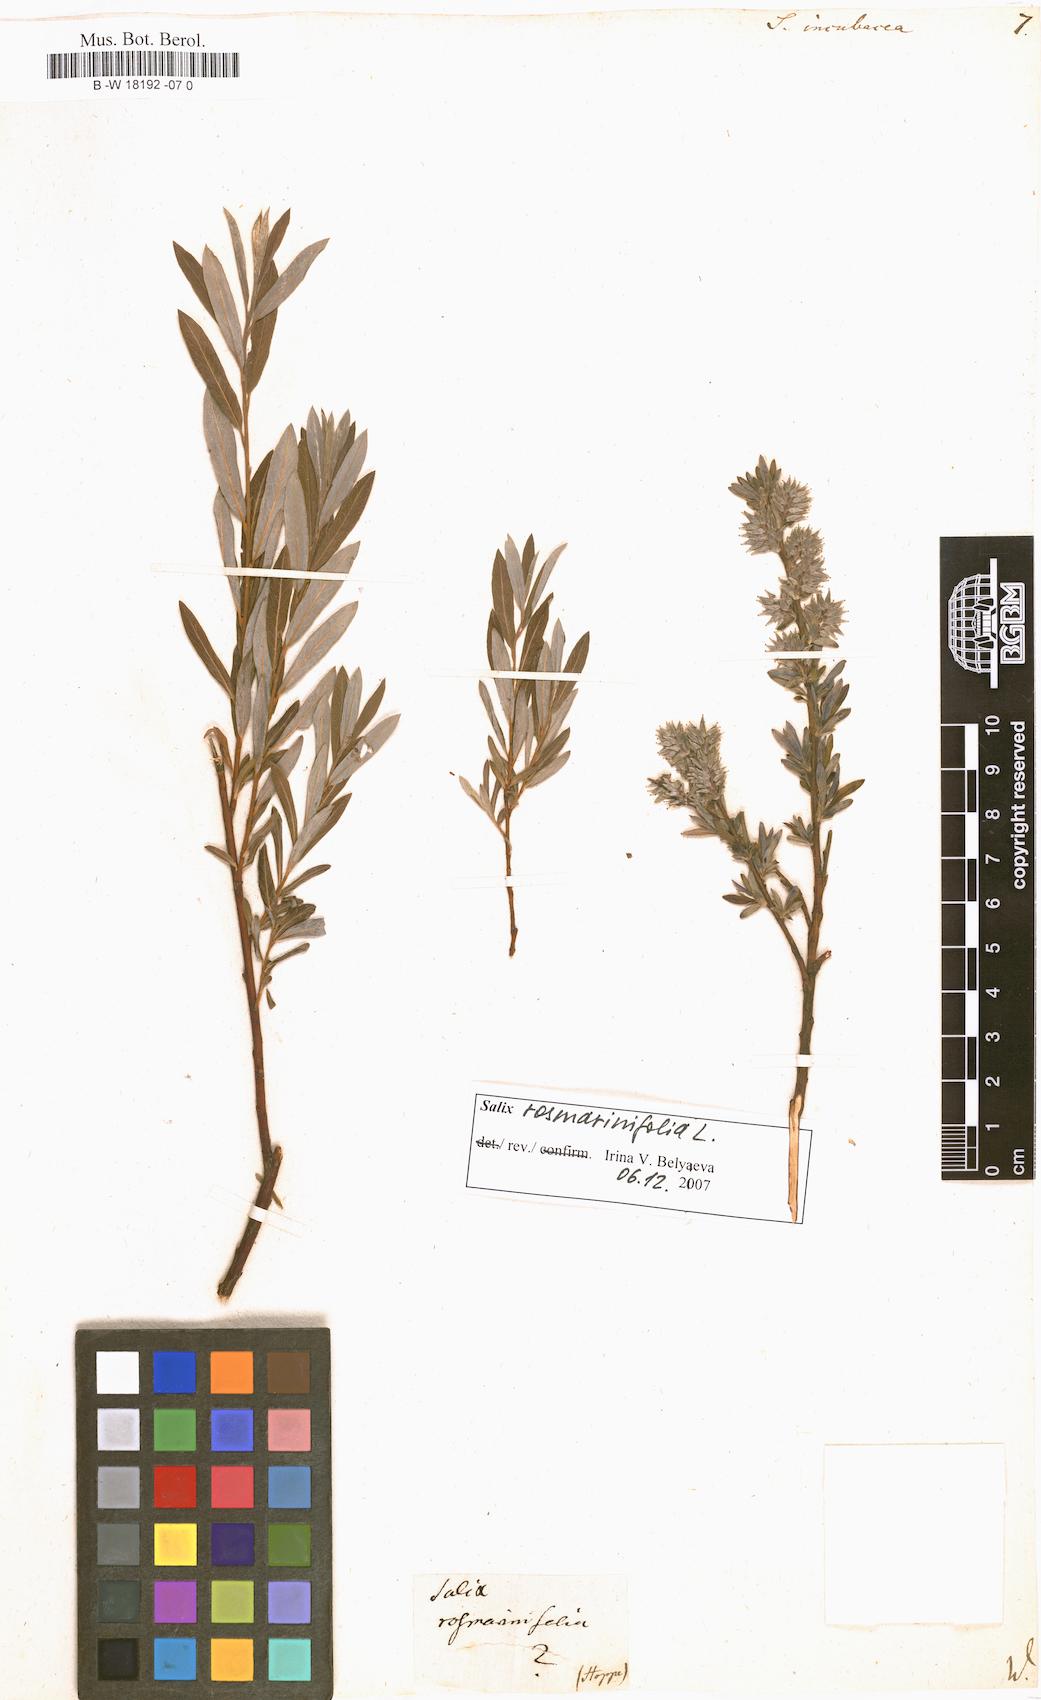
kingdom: Plantae
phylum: Tracheophyta
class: Magnoliopsida
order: Malpighiales
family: Salicaceae
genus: Salix
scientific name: Salix incubacea
